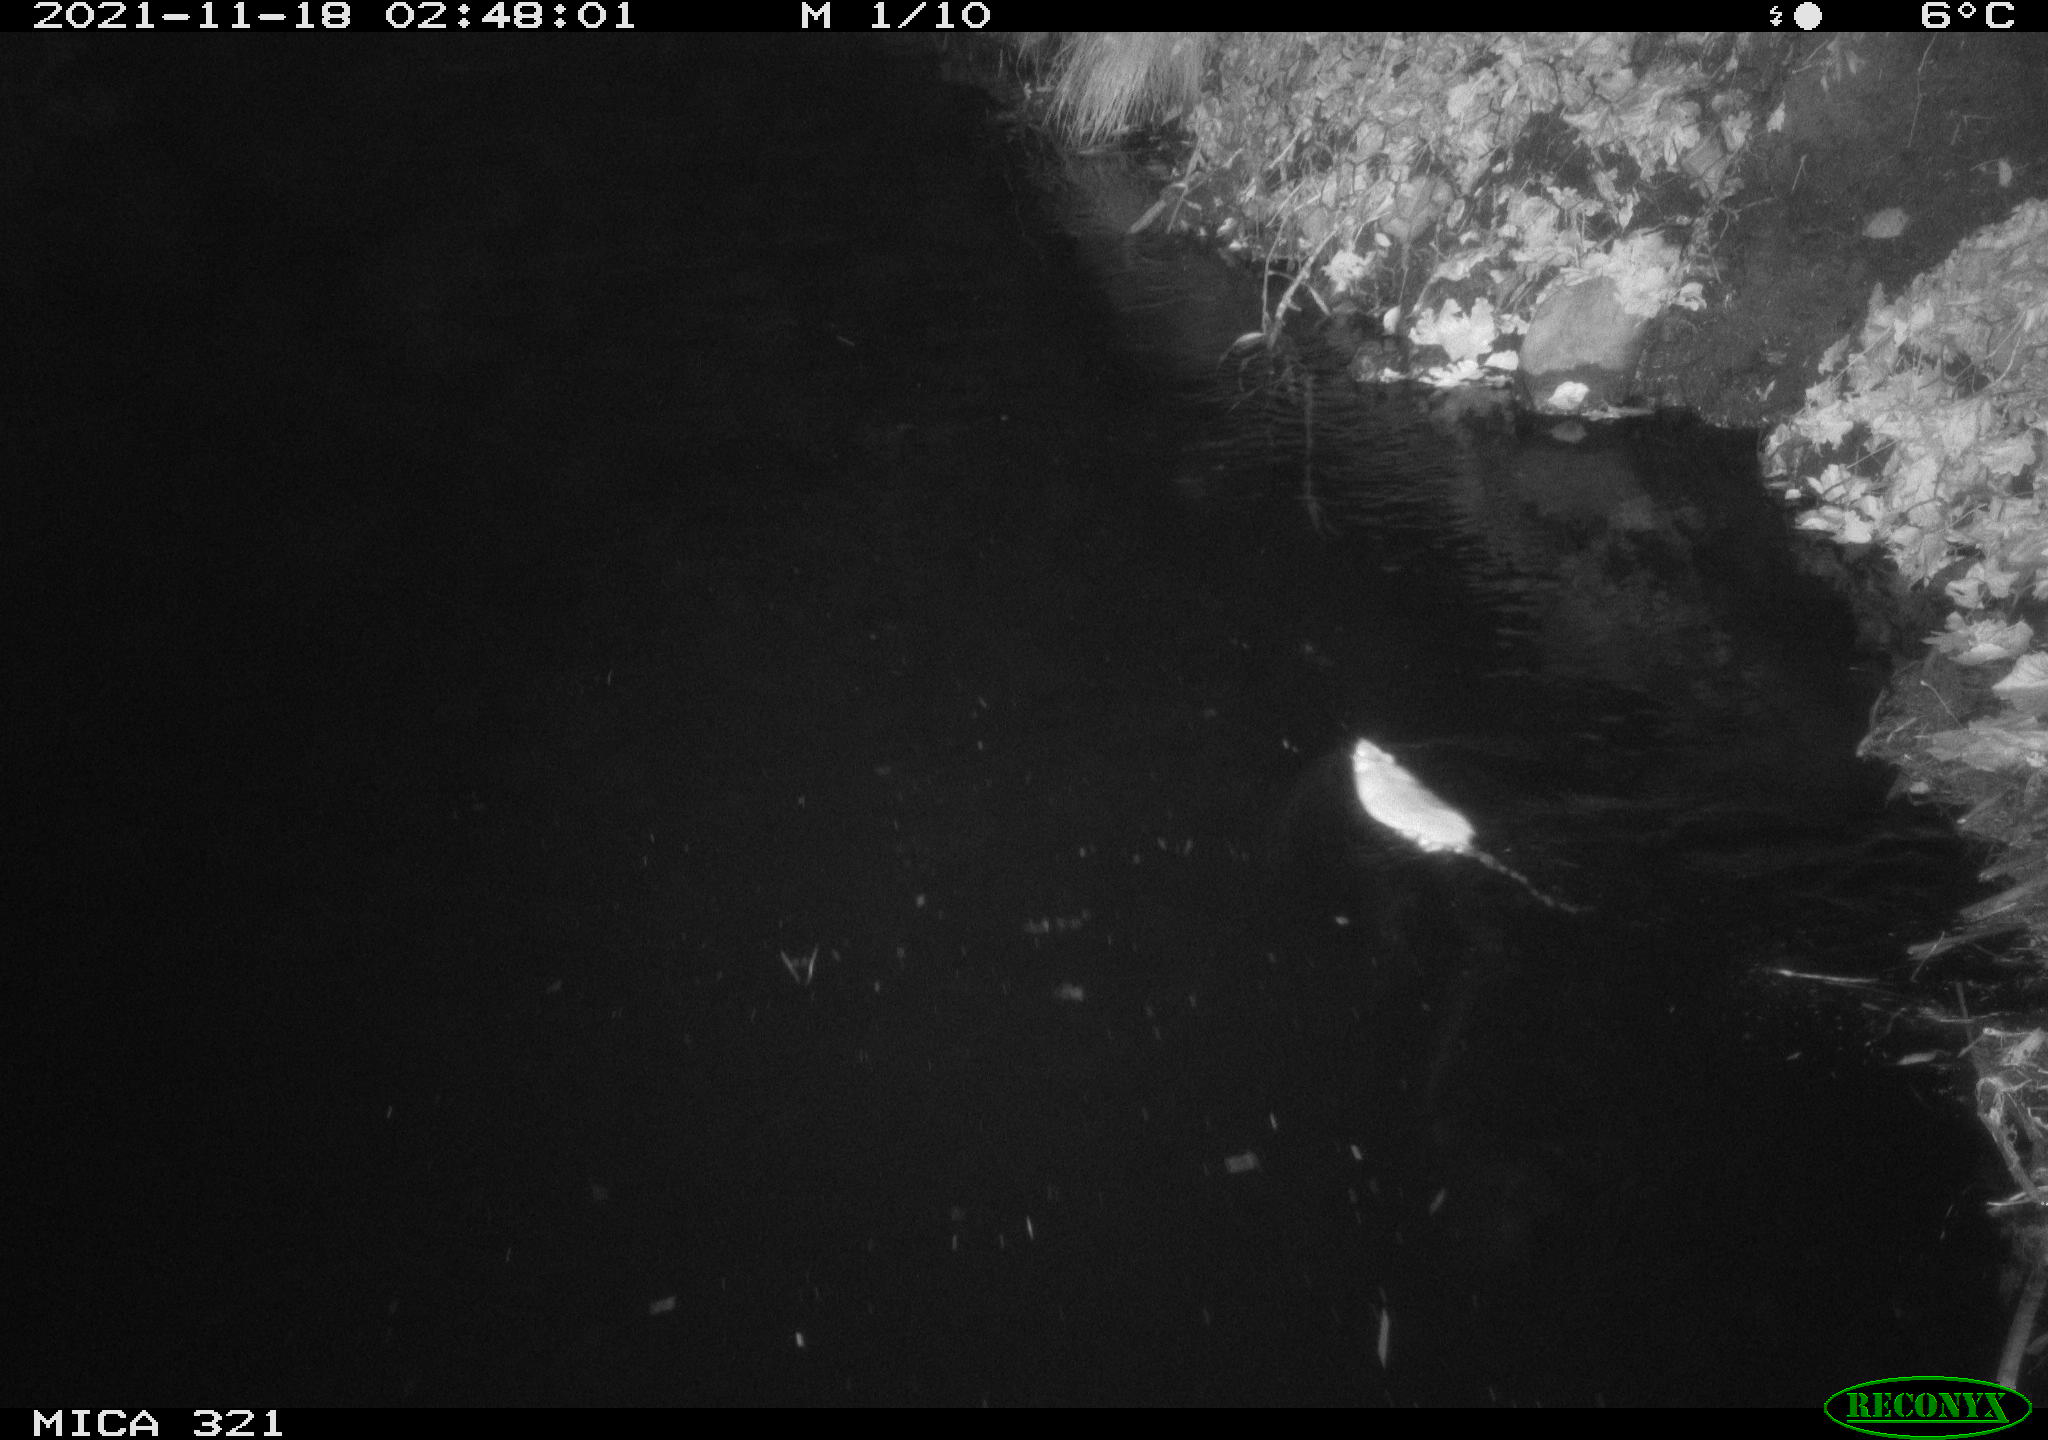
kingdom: Animalia
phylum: Chordata
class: Mammalia
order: Rodentia
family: Muridae
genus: Rattus
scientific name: Rattus norvegicus
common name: Brown rat
